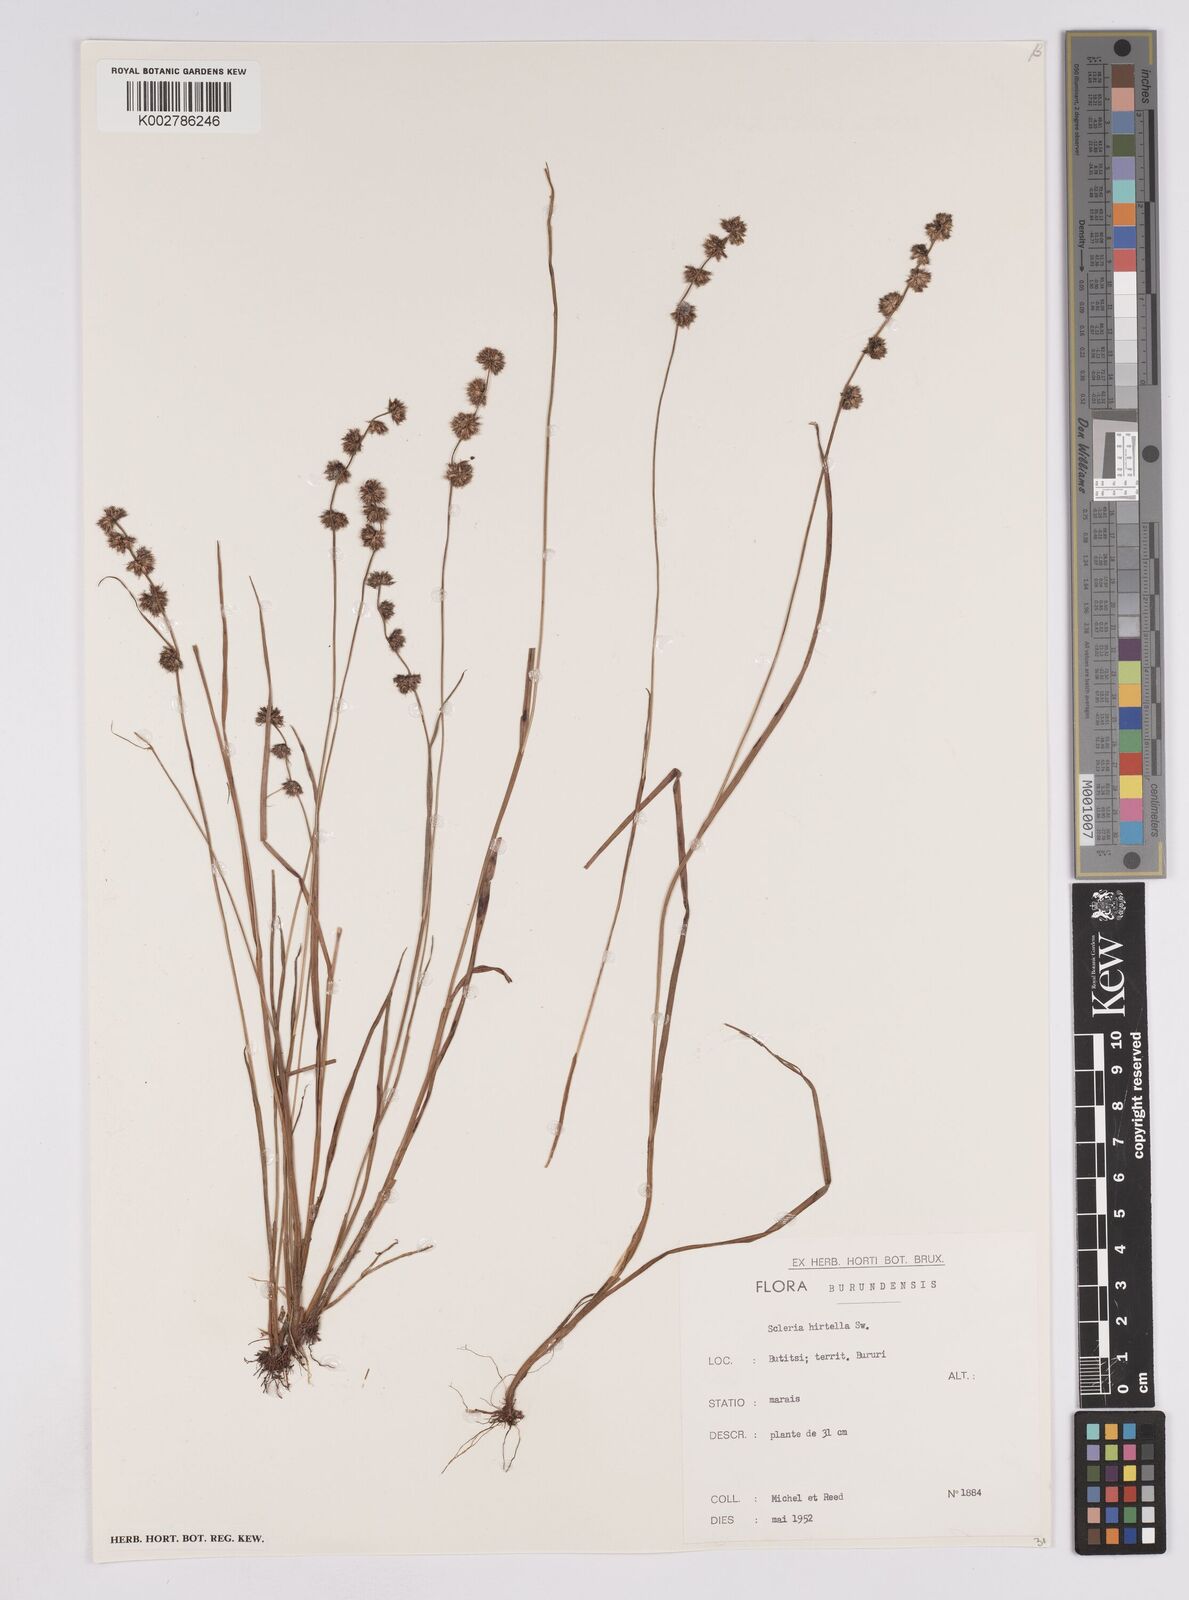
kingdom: Plantae
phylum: Tracheophyta
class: Liliopsida
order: Poales
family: Cyperaceae
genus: Scleria
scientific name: Scleria melanotricha
